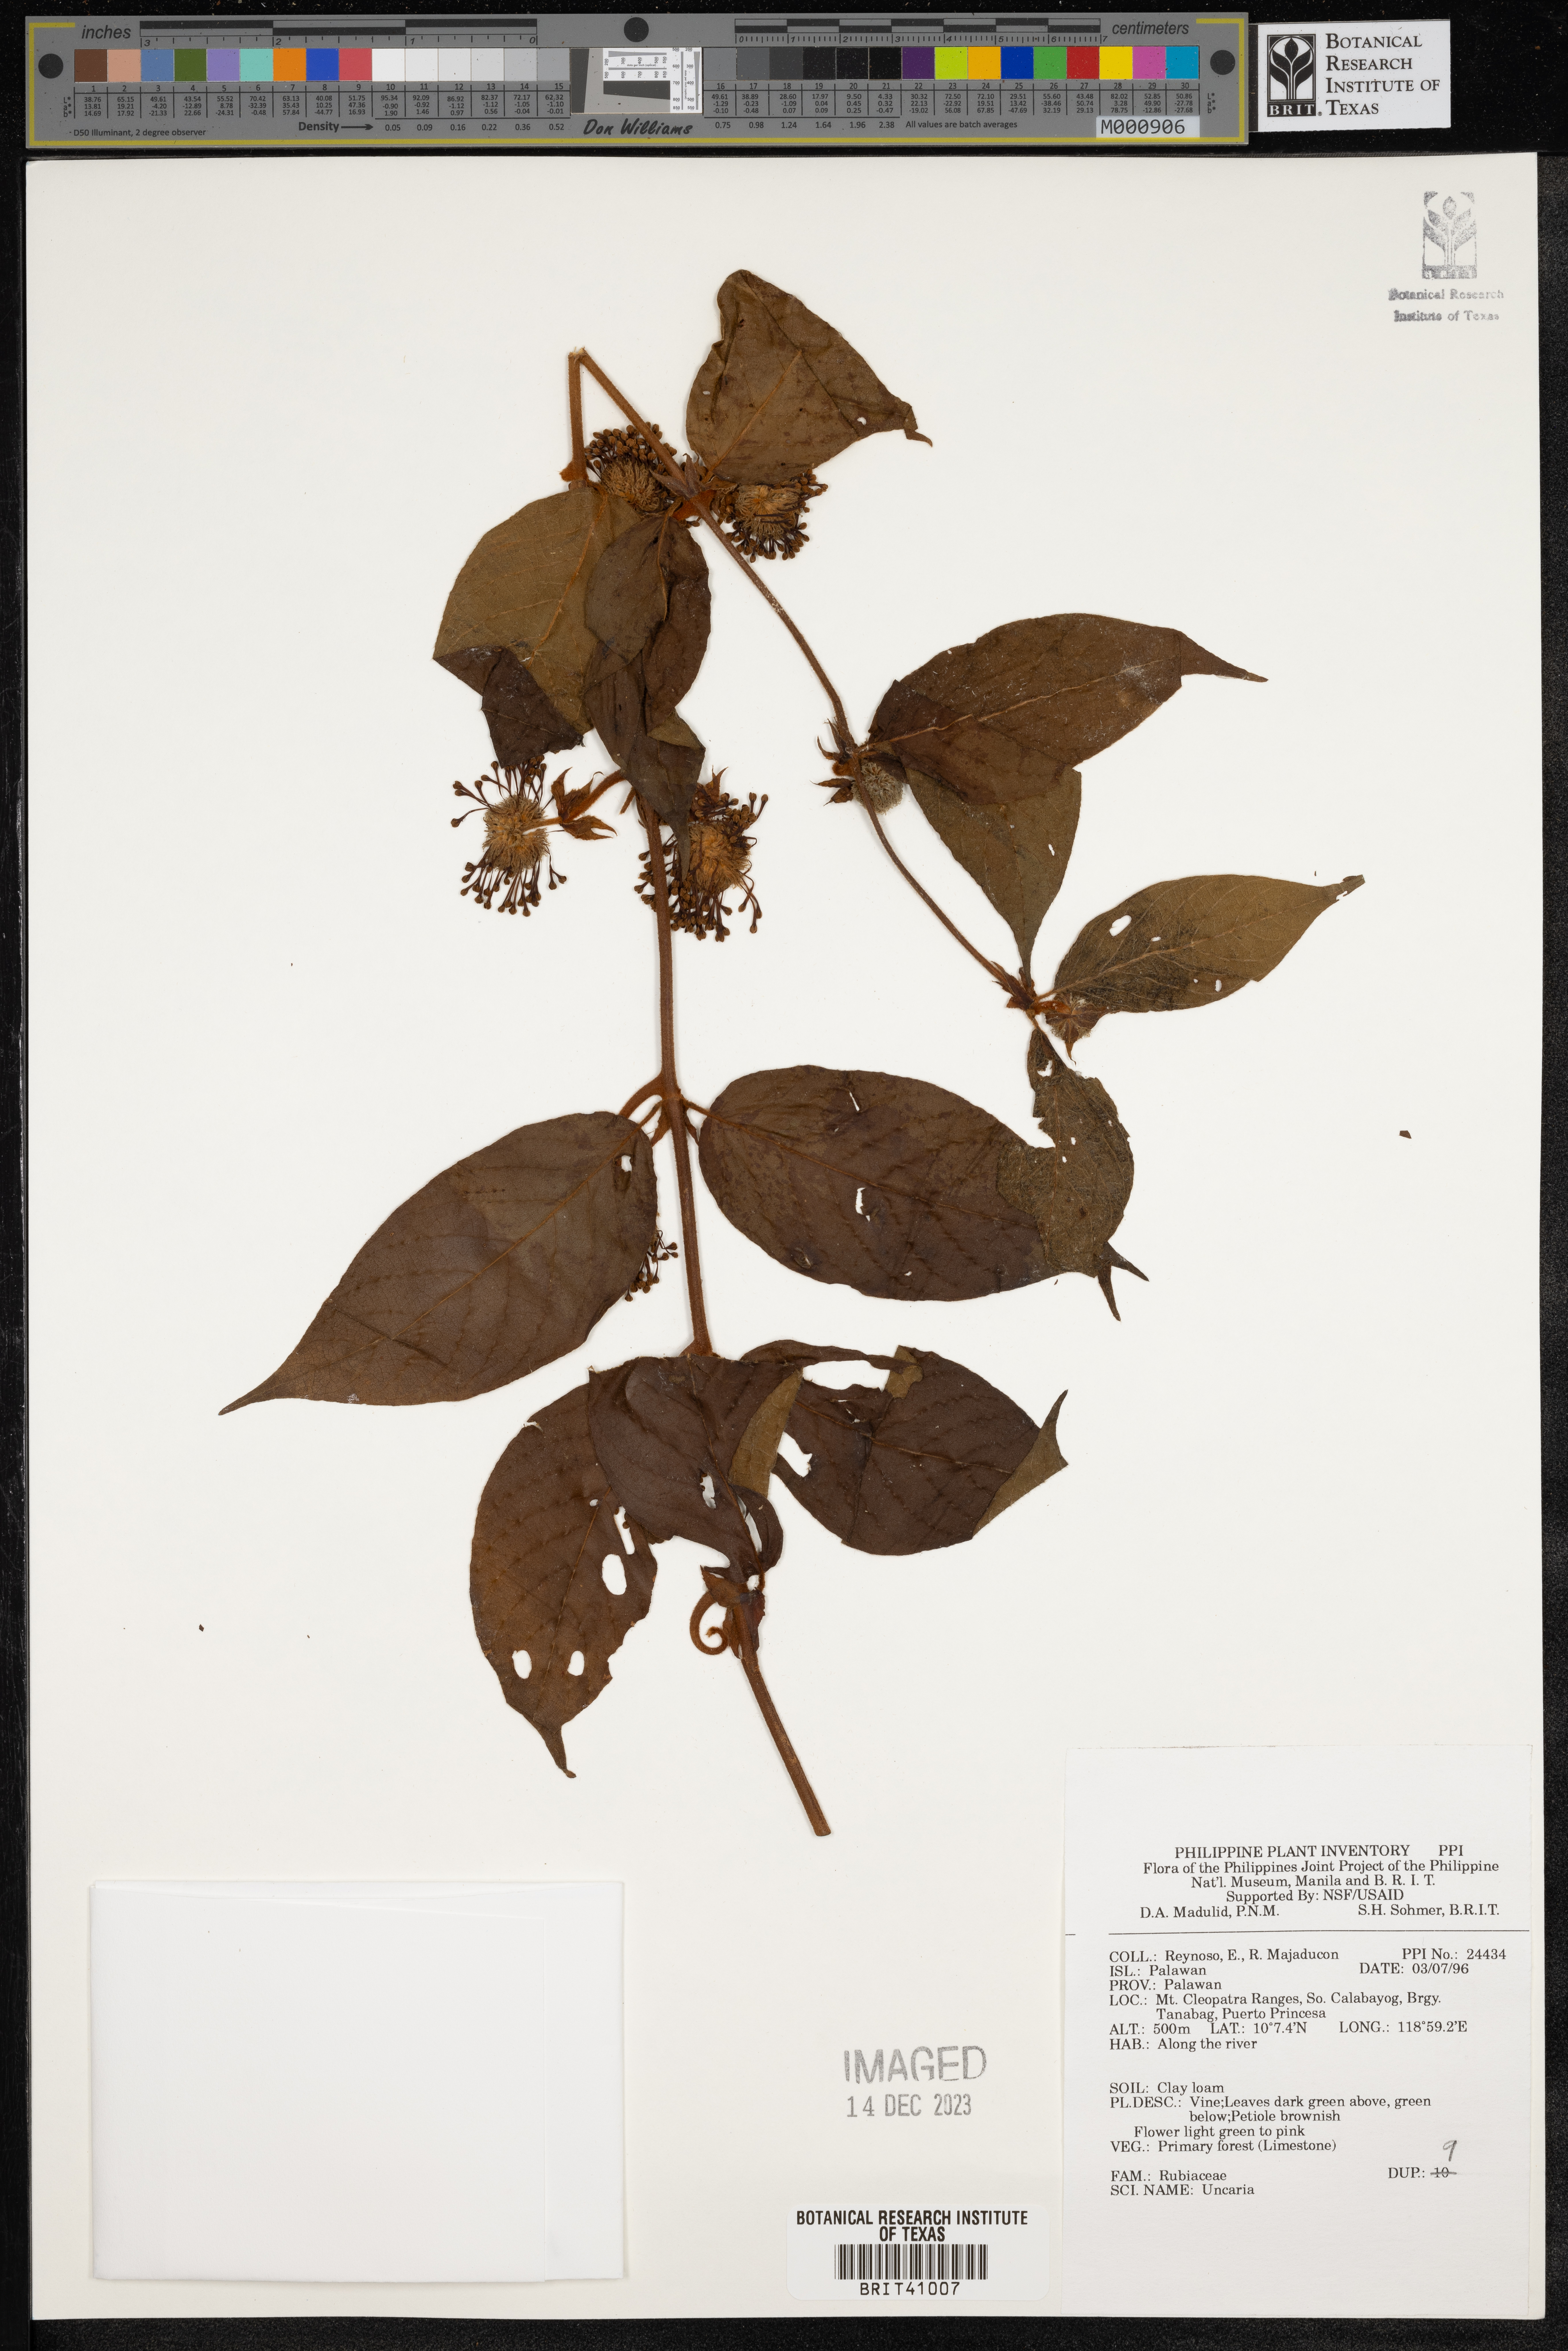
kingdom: Plantae
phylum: Tracheophyta
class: Magnoliopsida
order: Gentianales
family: Rubiaceae
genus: Uncaria
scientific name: Uncaria
